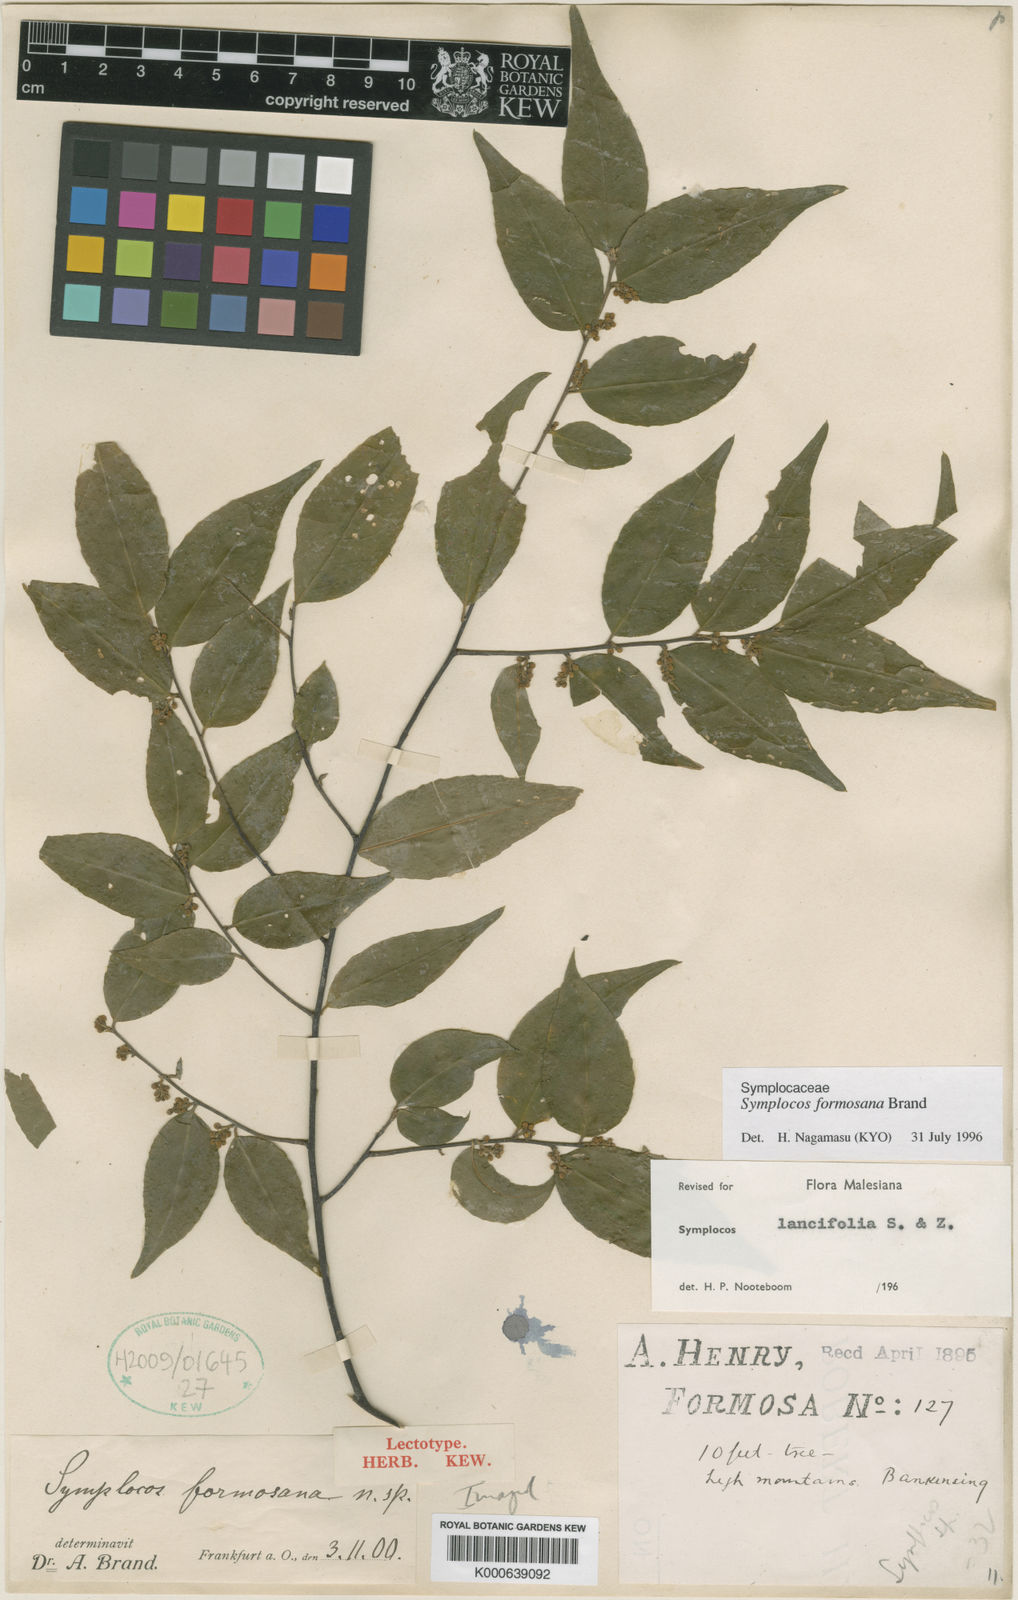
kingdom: Plantae
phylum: Tracheophyta
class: Magnoliopsida
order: Ericales
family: Symplocaceae
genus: Symplocos
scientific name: Symplocos lancifolia
